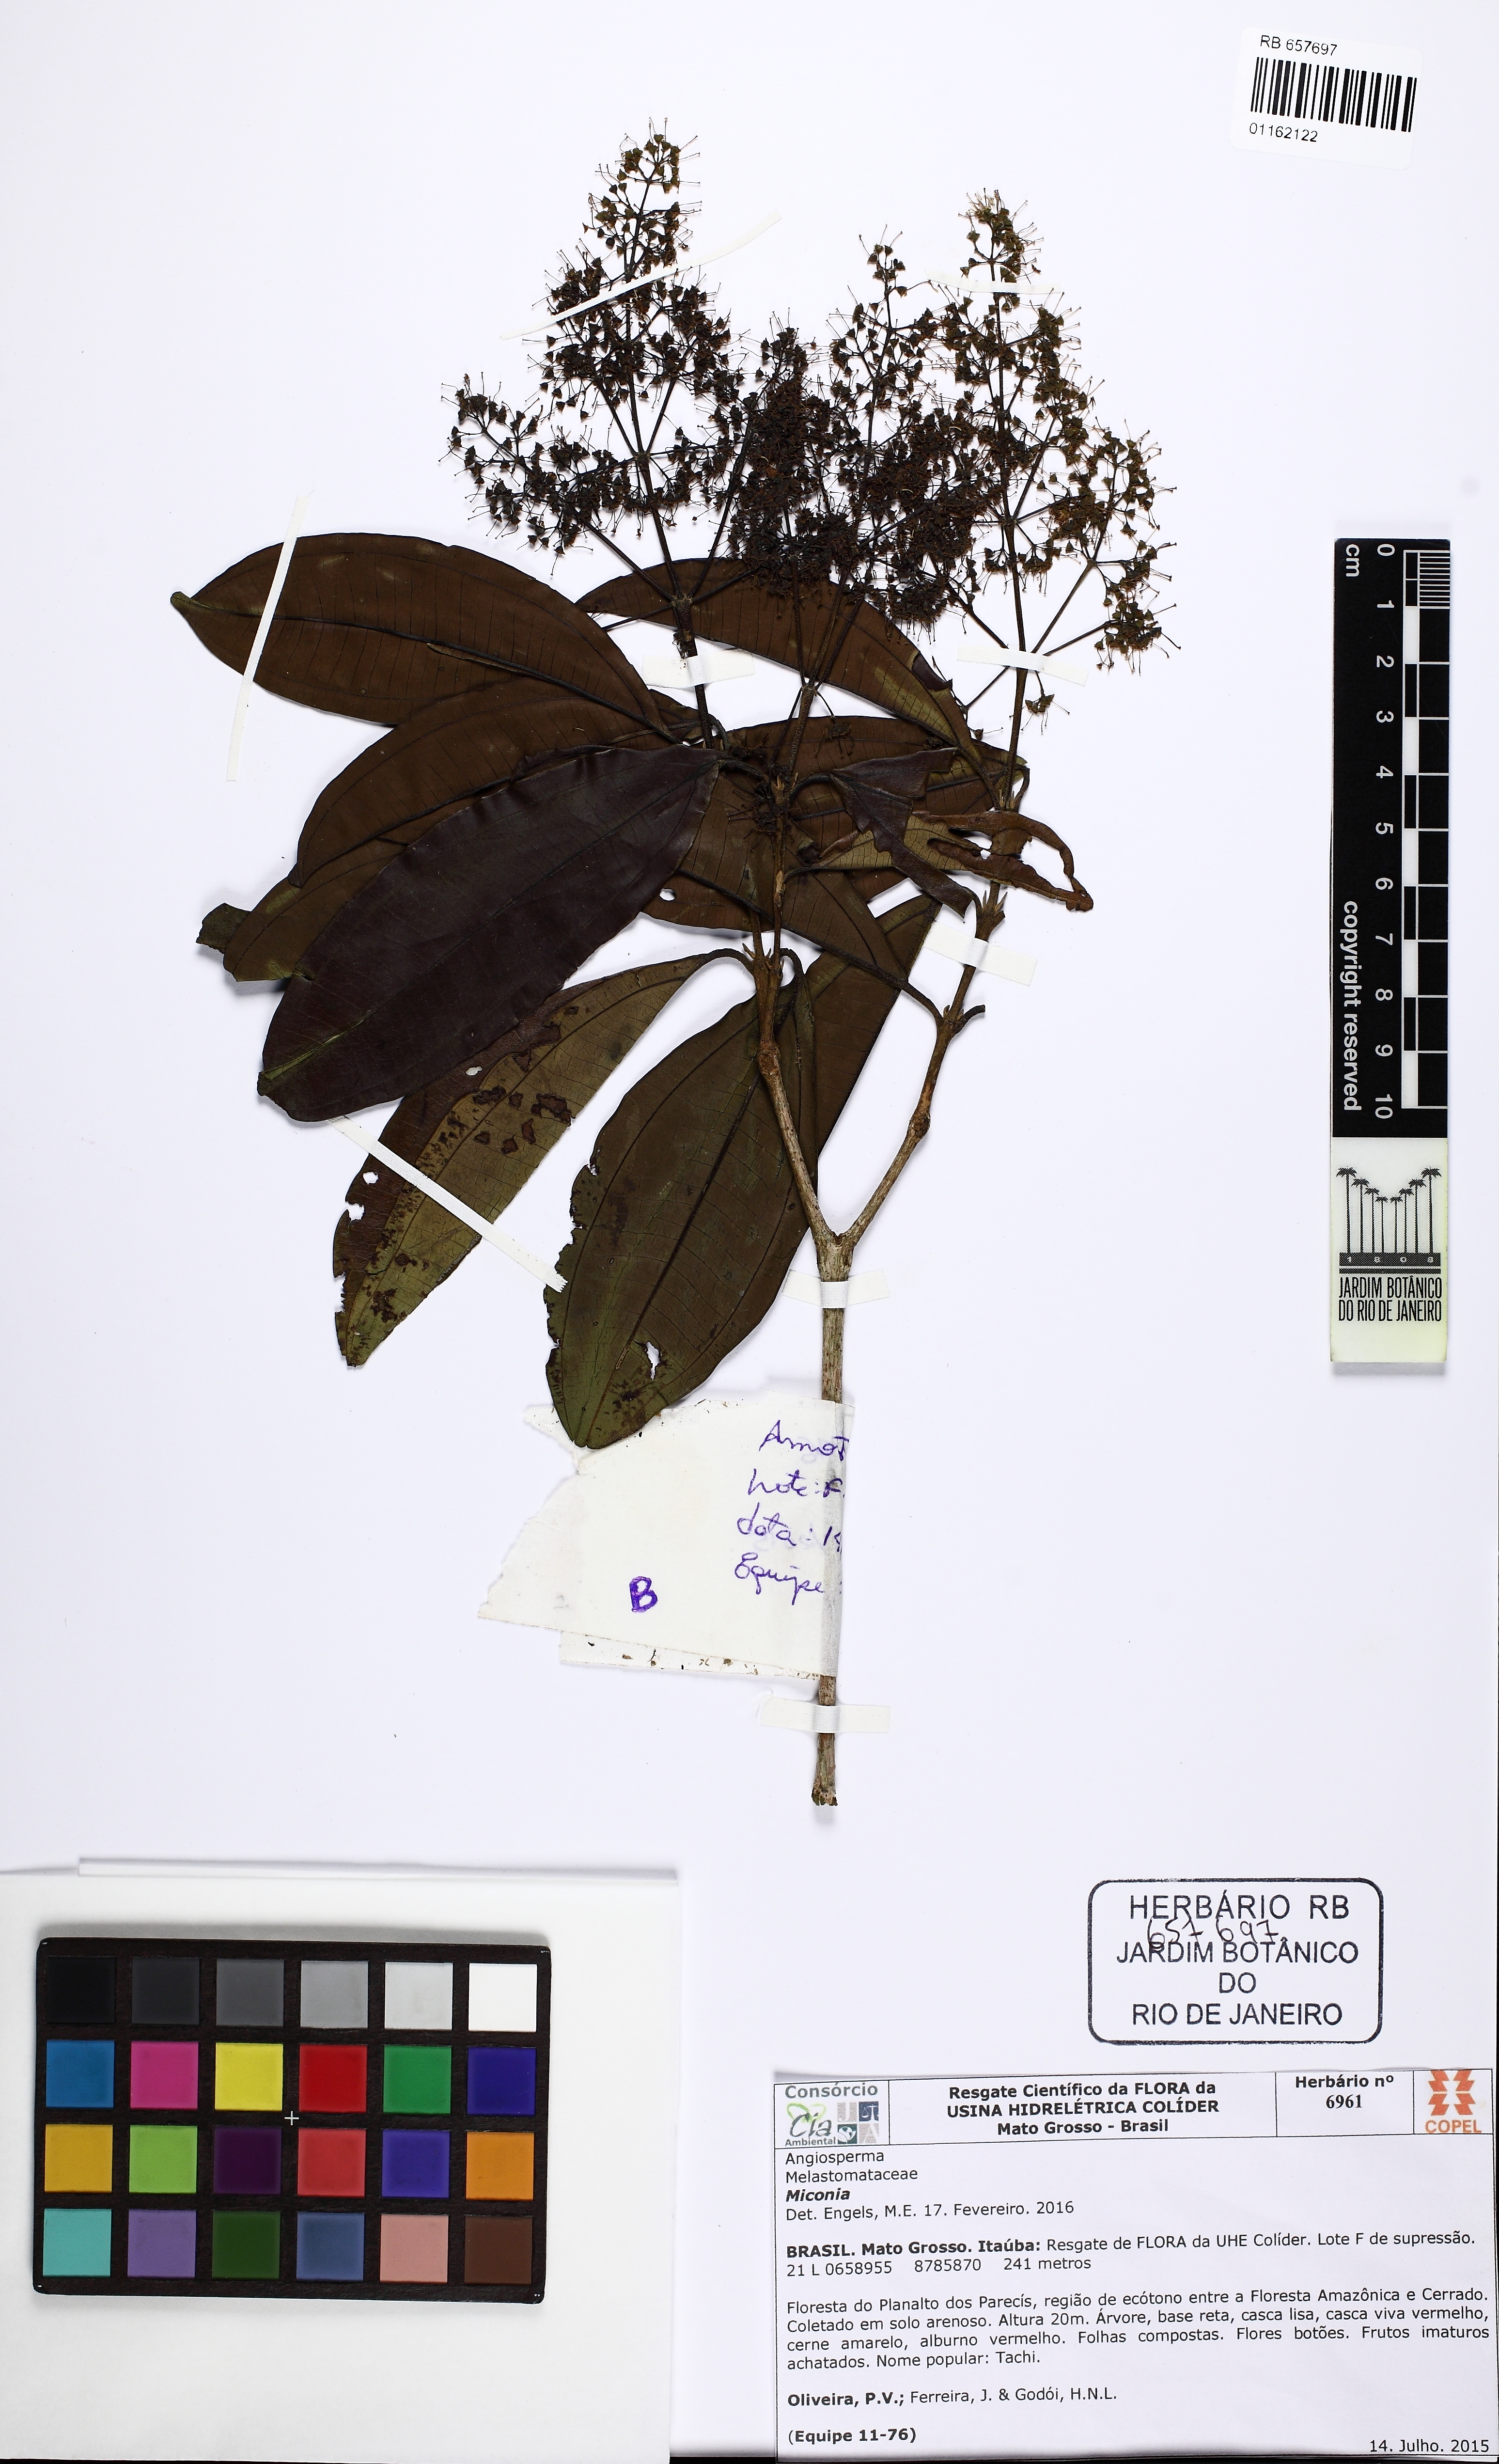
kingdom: Plantae
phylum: Tracheophyta
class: Magnoliopsida
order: Myrtales
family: Melastomataceae
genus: Miconia
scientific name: Miconia
